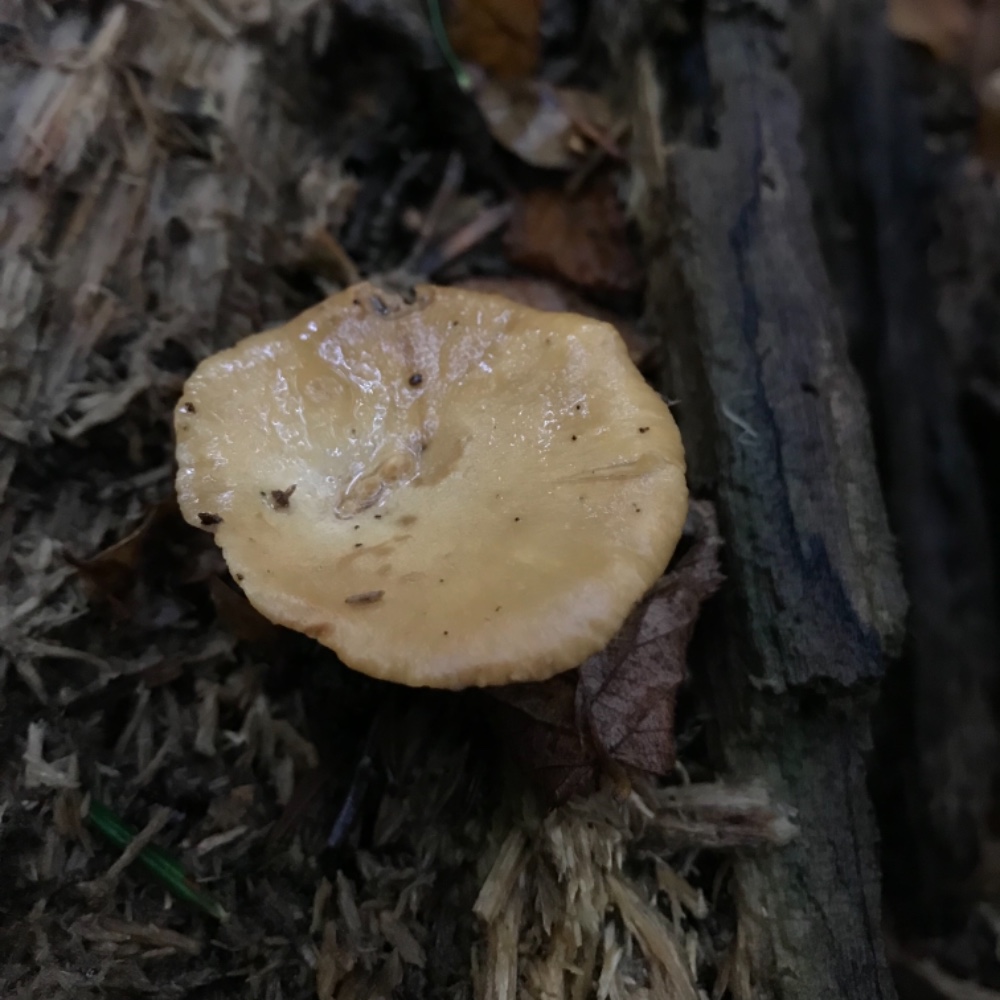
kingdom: Fungi
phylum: Basidiomycota
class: Agaricomycetes
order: Polyporales
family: Polyporaceae
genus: Cerioporus
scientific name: Cerioporus varius
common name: foranderlig stilkporesvamp
